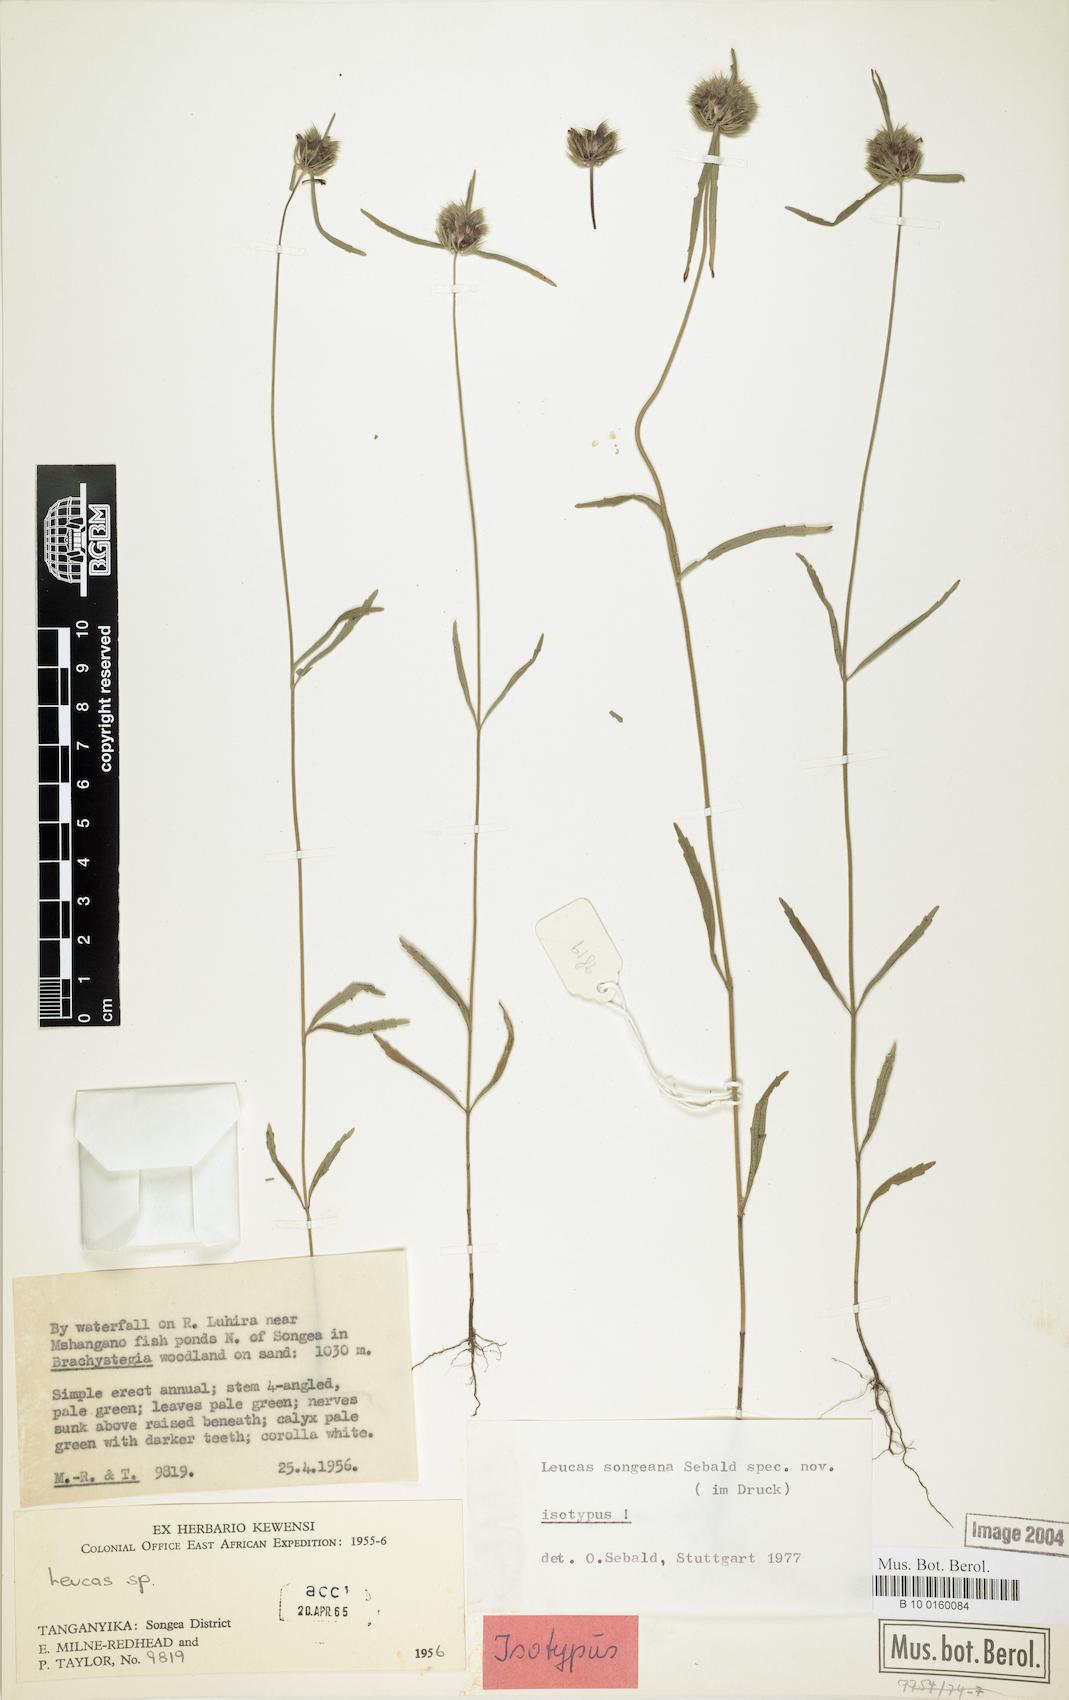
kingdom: Plantae
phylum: Tracheophyta
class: Magnoliopsida
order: Lamiales
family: Lamiaceae
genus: Leucas
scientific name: Leucas songeana
